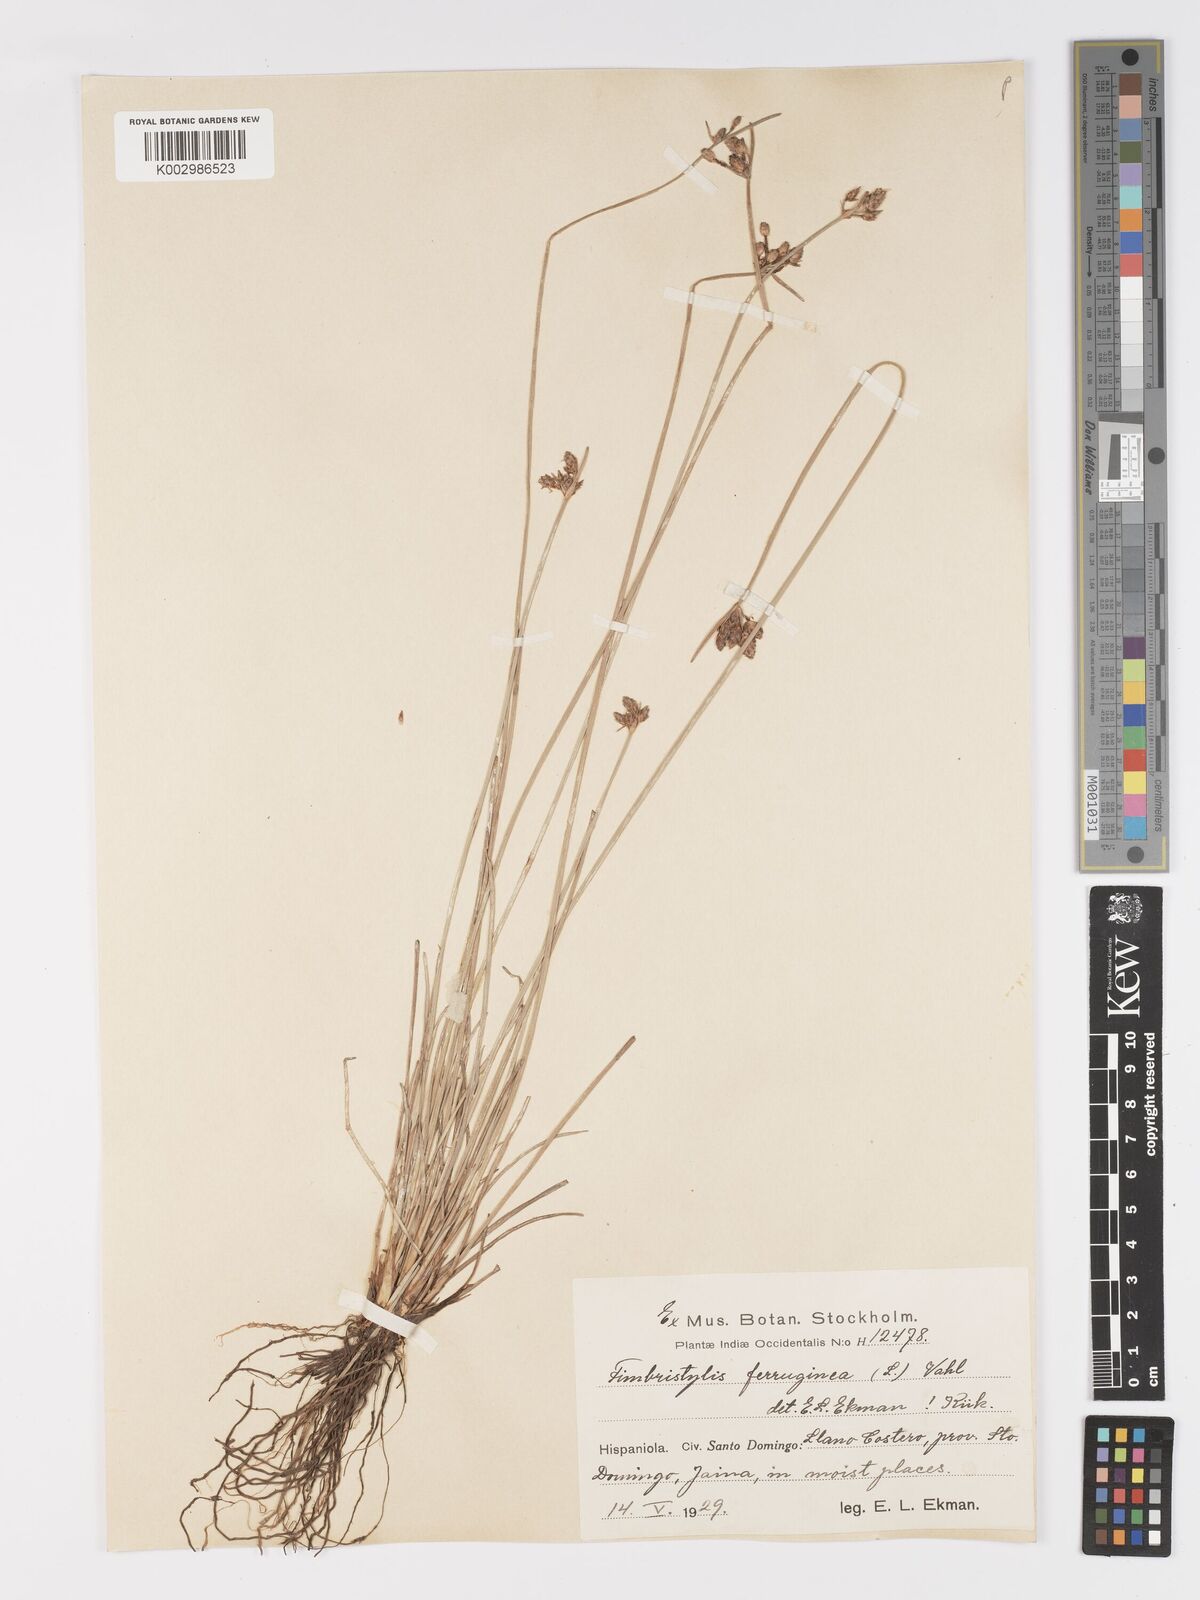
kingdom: Plantae
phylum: Tracheophyta
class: Liliopsida
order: Poales
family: Cyperaceae
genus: Fimbristylis
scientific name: Fimbristylis ferruginea
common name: West indian fimbry
